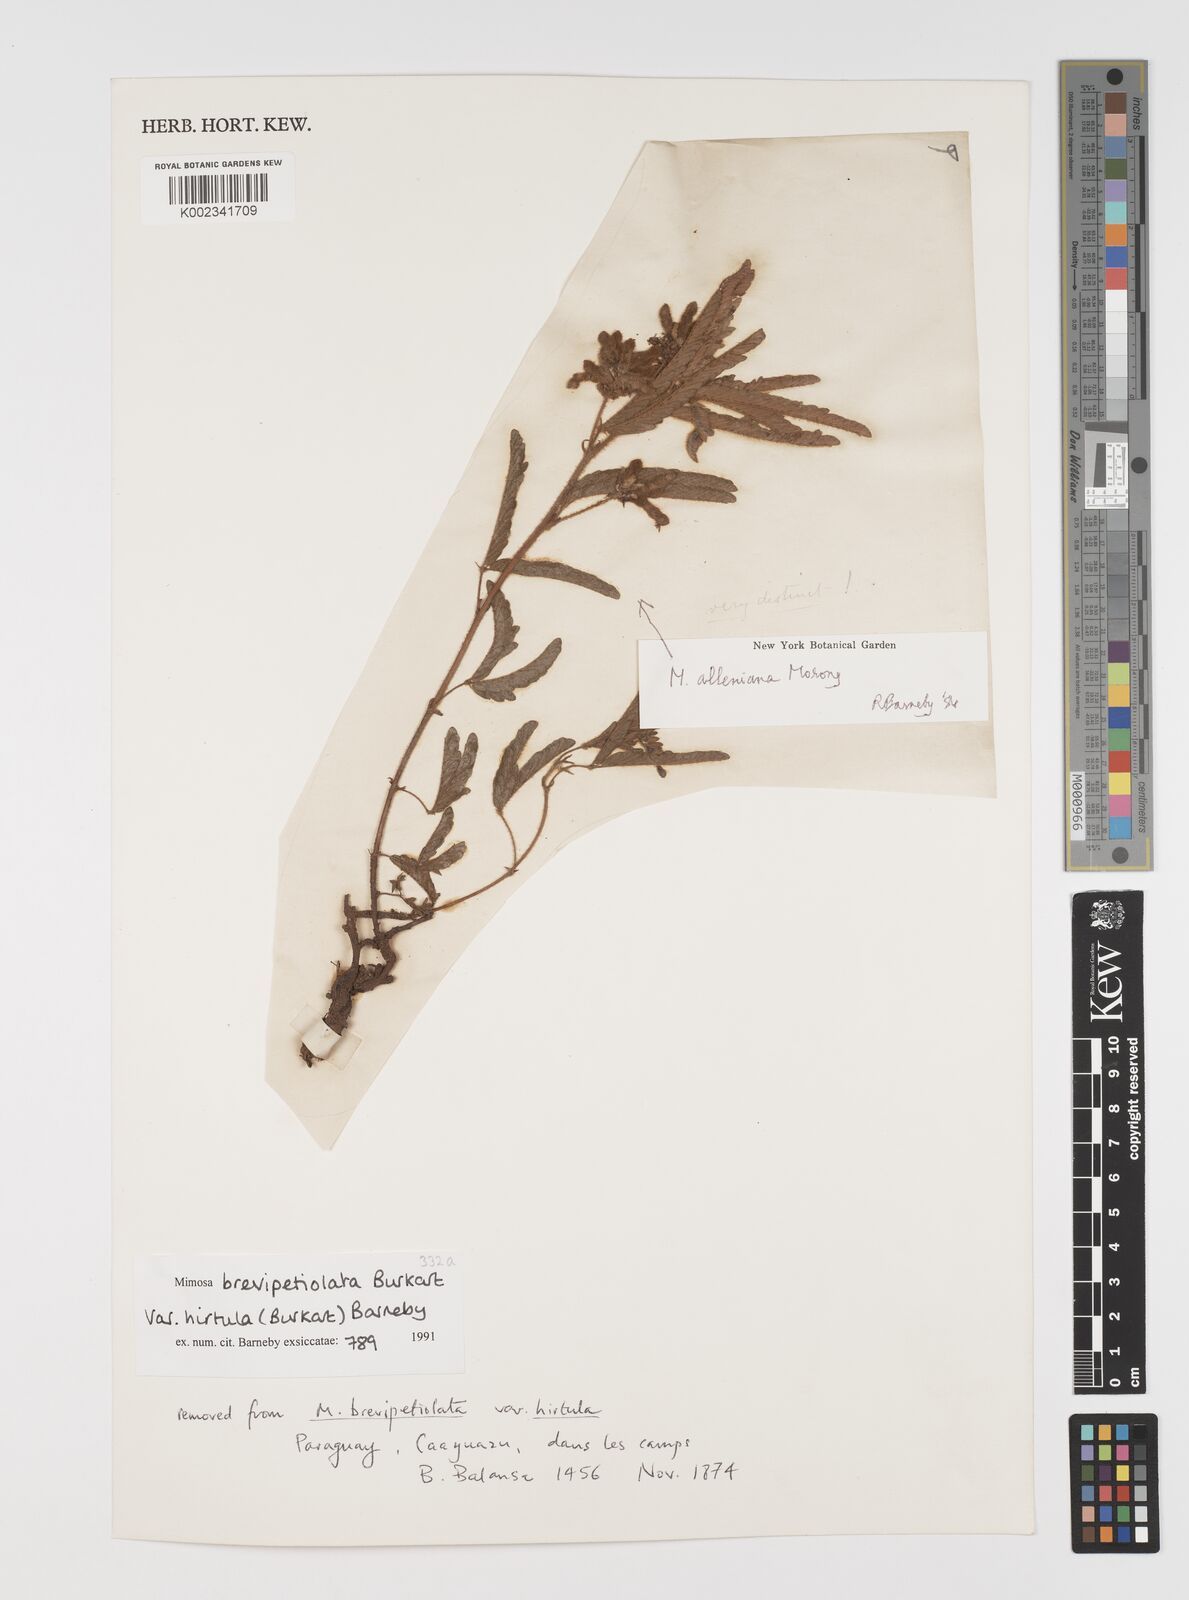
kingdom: Plantae
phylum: Tracheophyta
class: Magnoliopsida
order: Fabales
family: Fabaceae
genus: Mimosa
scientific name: Mimosa alleniana
